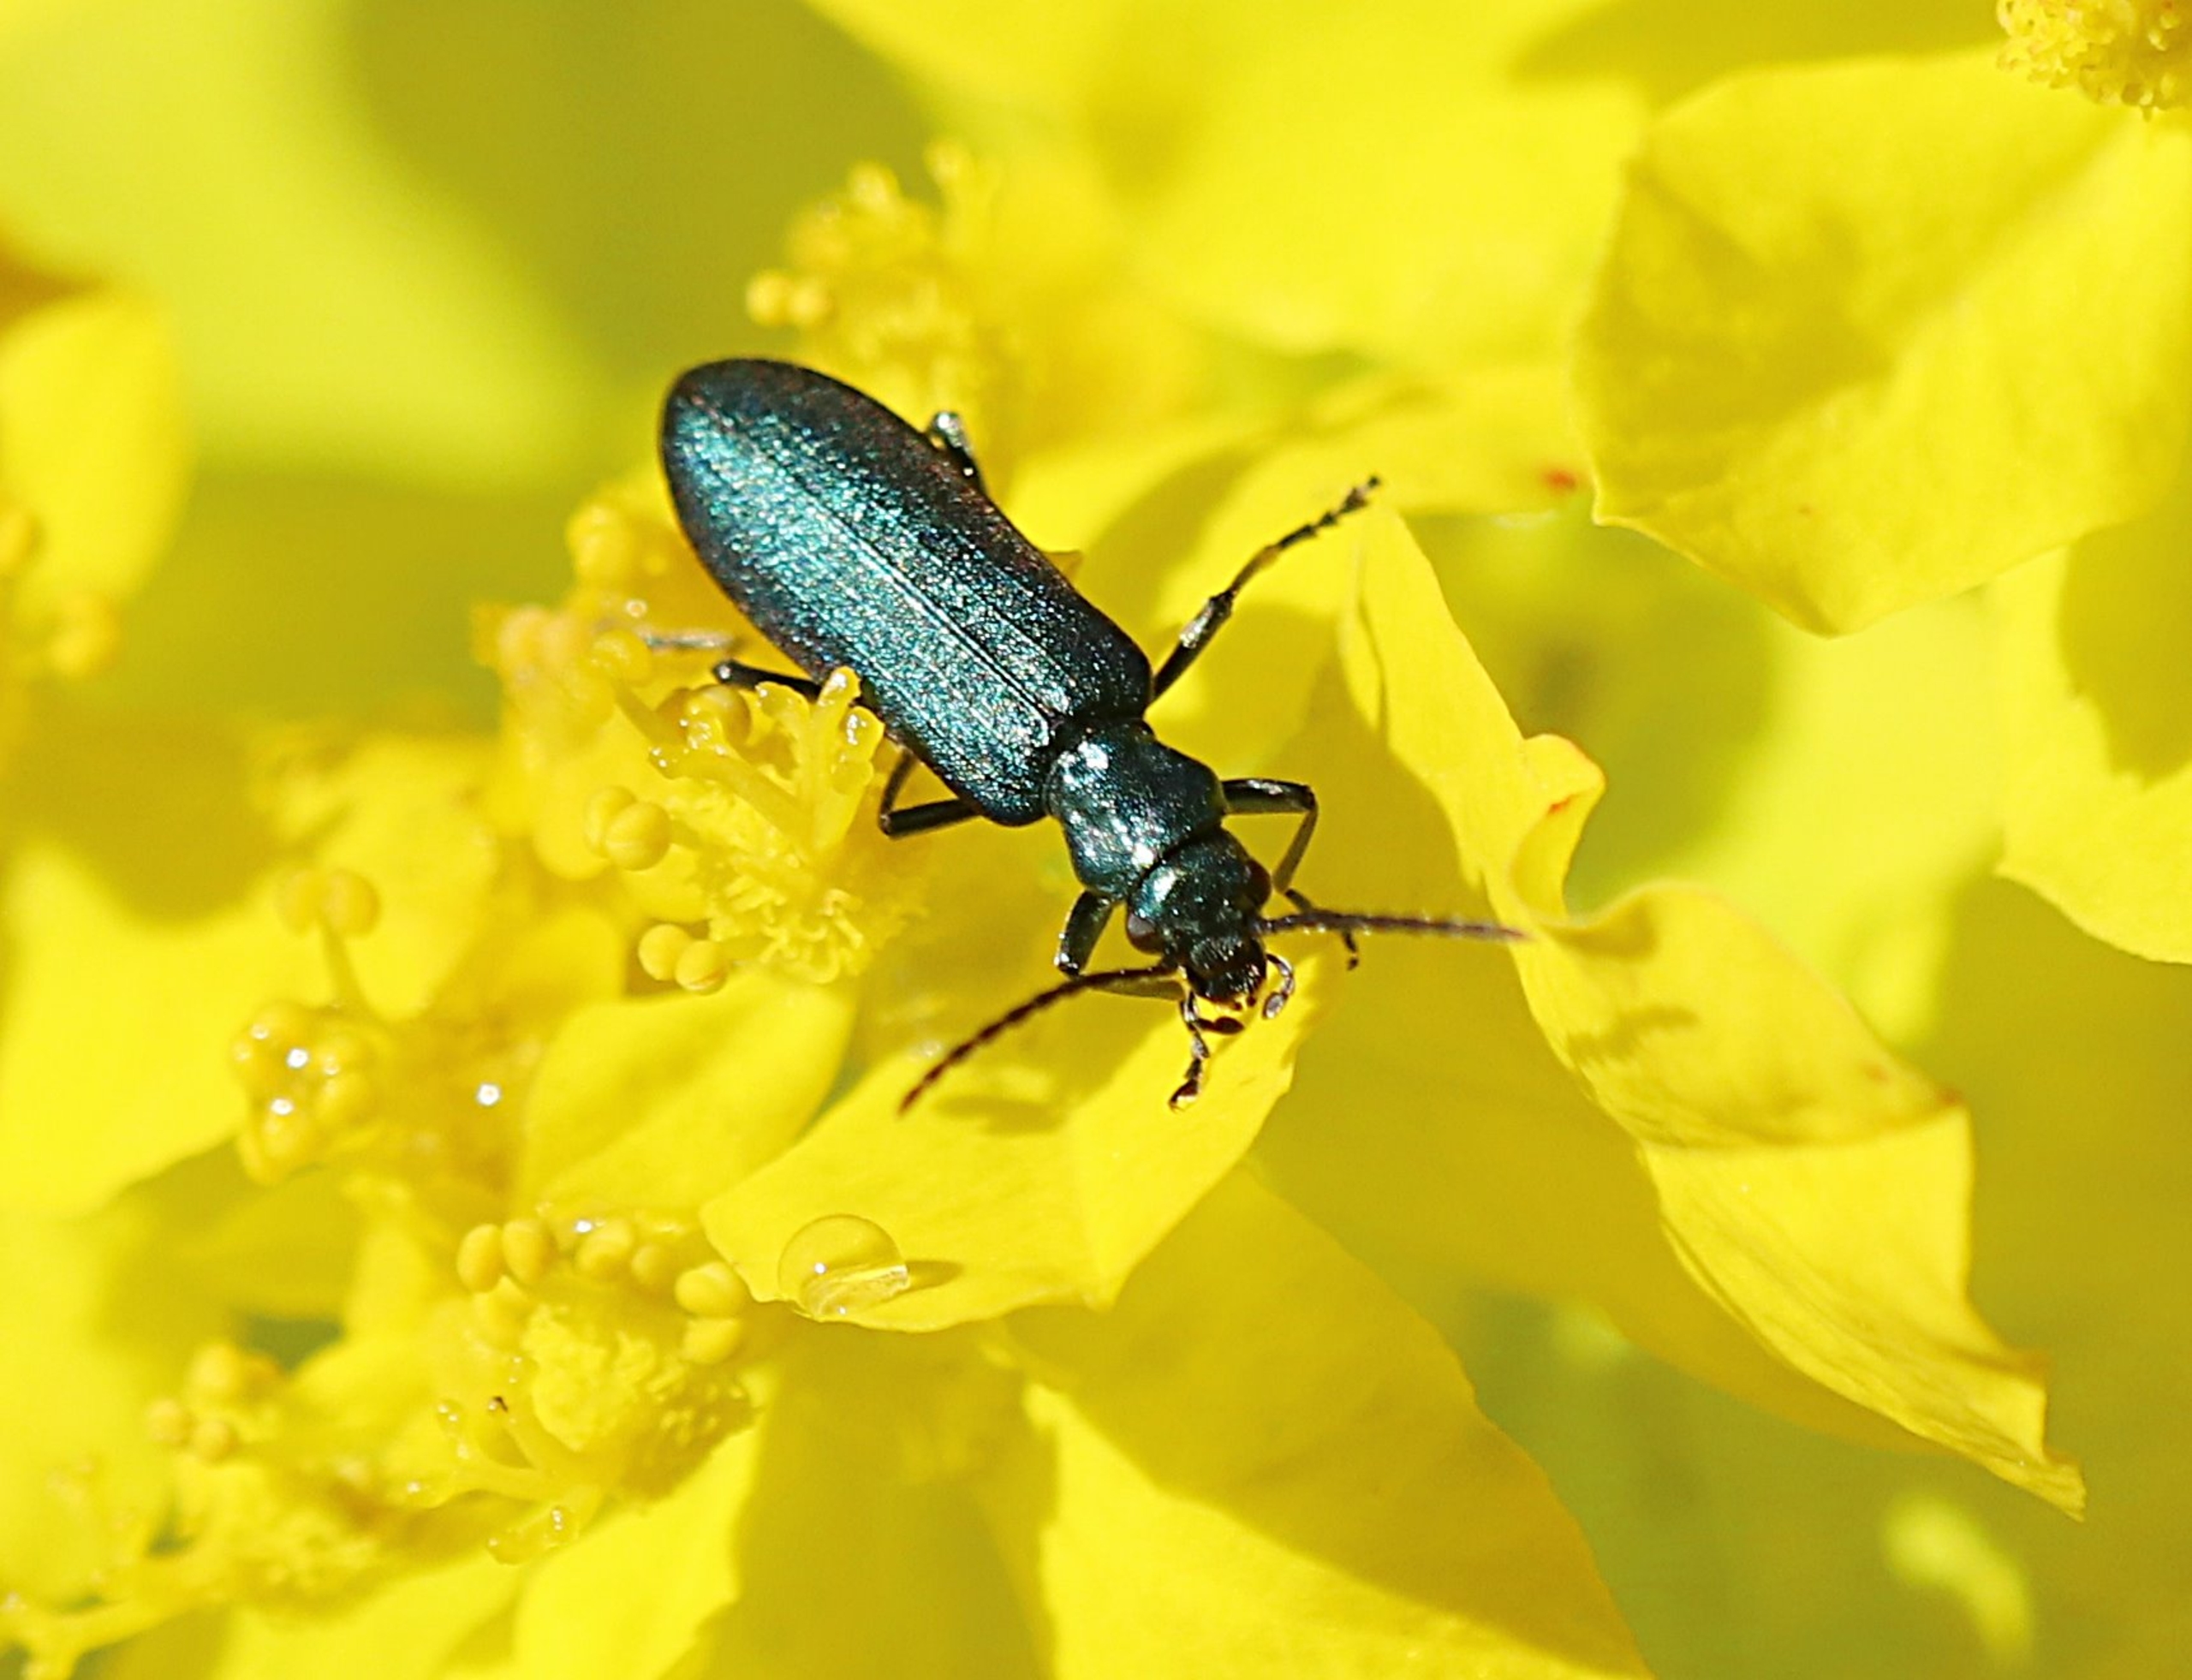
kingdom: Animalia
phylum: Arthropoda
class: Insecta
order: Coleoptera
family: Oedemeridae
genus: Ischnomera
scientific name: Ischnomera cyanea
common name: Blågrøn solbille
